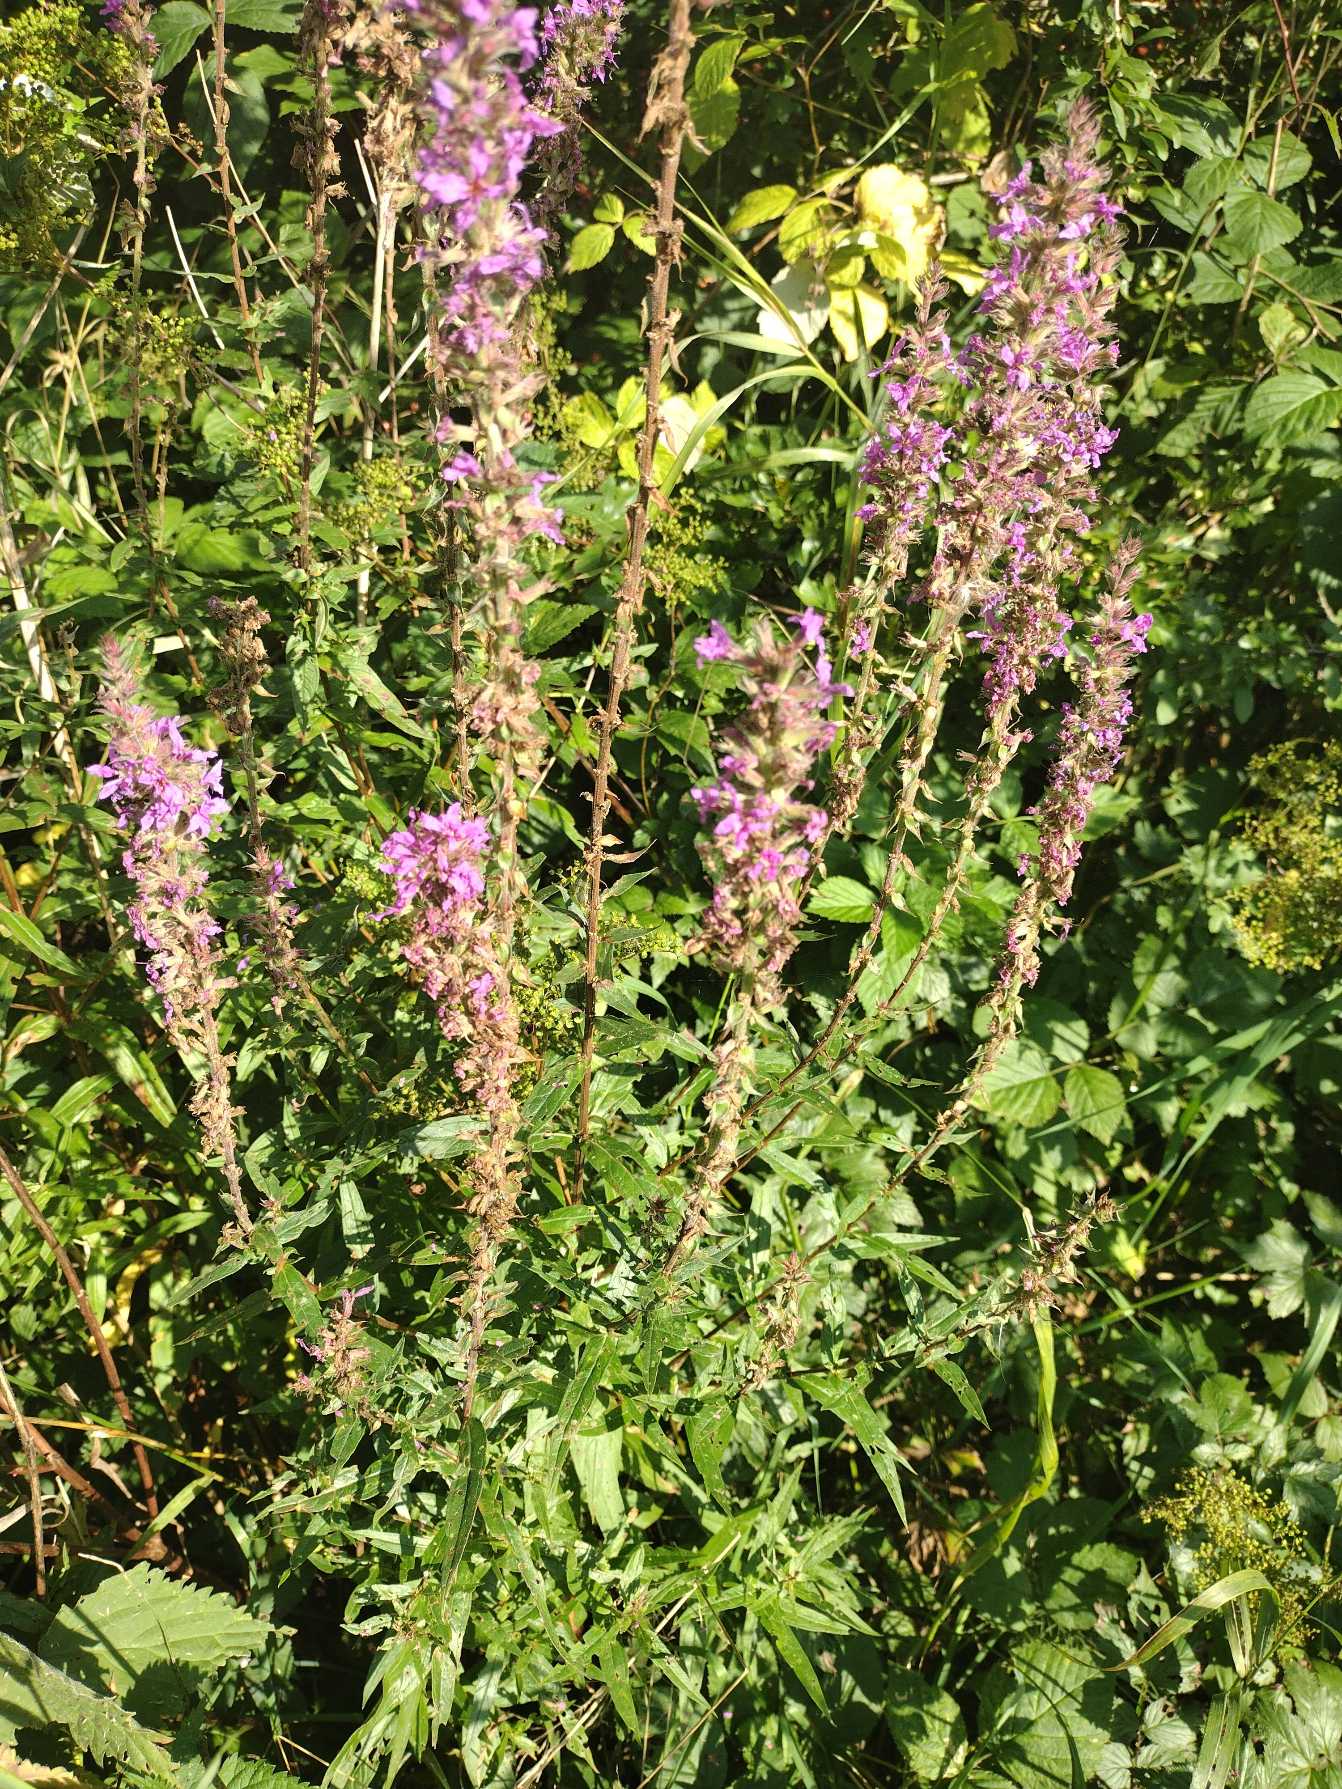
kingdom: Plantae
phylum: Tracheophyta
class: Magnoliopsida
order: Myrtales
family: Lythraceae
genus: Lythrum
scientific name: Lythrum salicaria
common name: Kattehale
